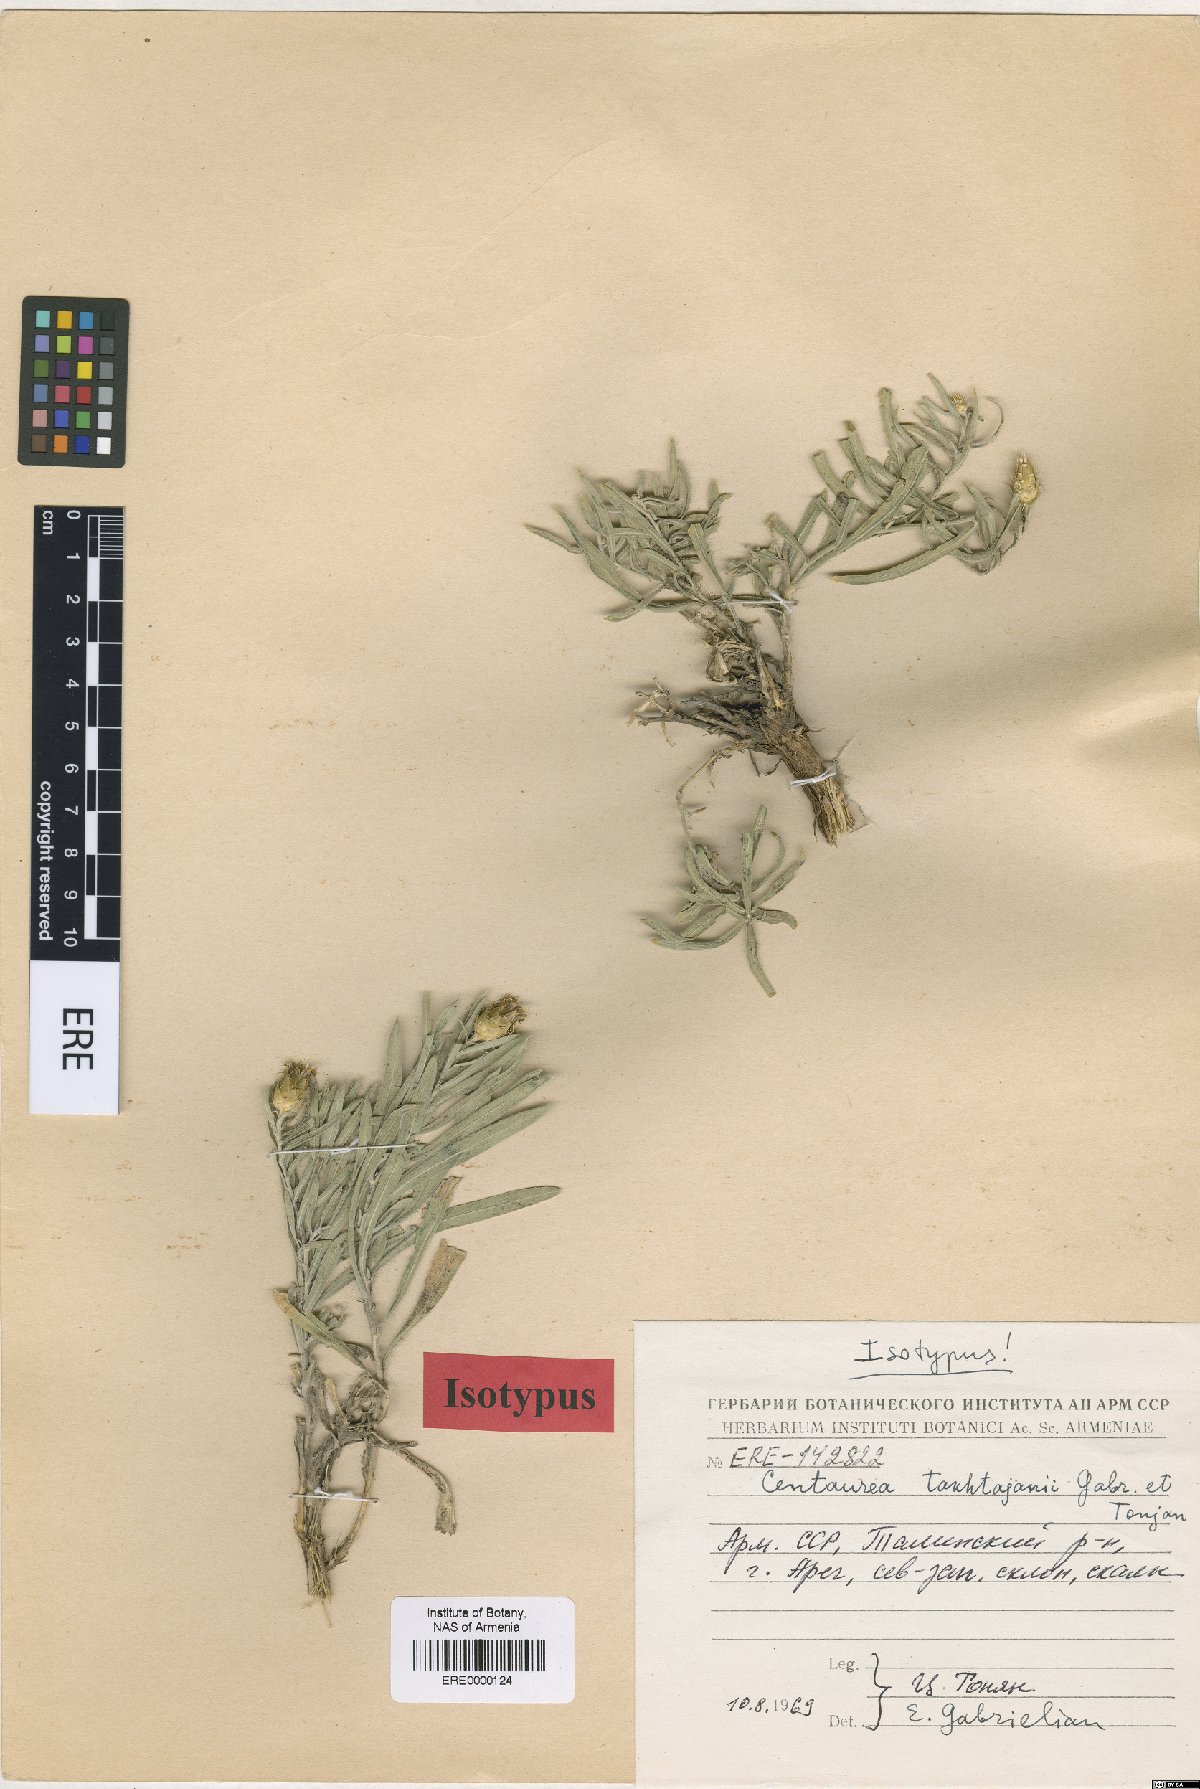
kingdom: Plantae
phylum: Tracheophyta
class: Magnoliopsida
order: Asterales
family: Asteraceae
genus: Centaurea
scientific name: Centaurea takhtajanii
